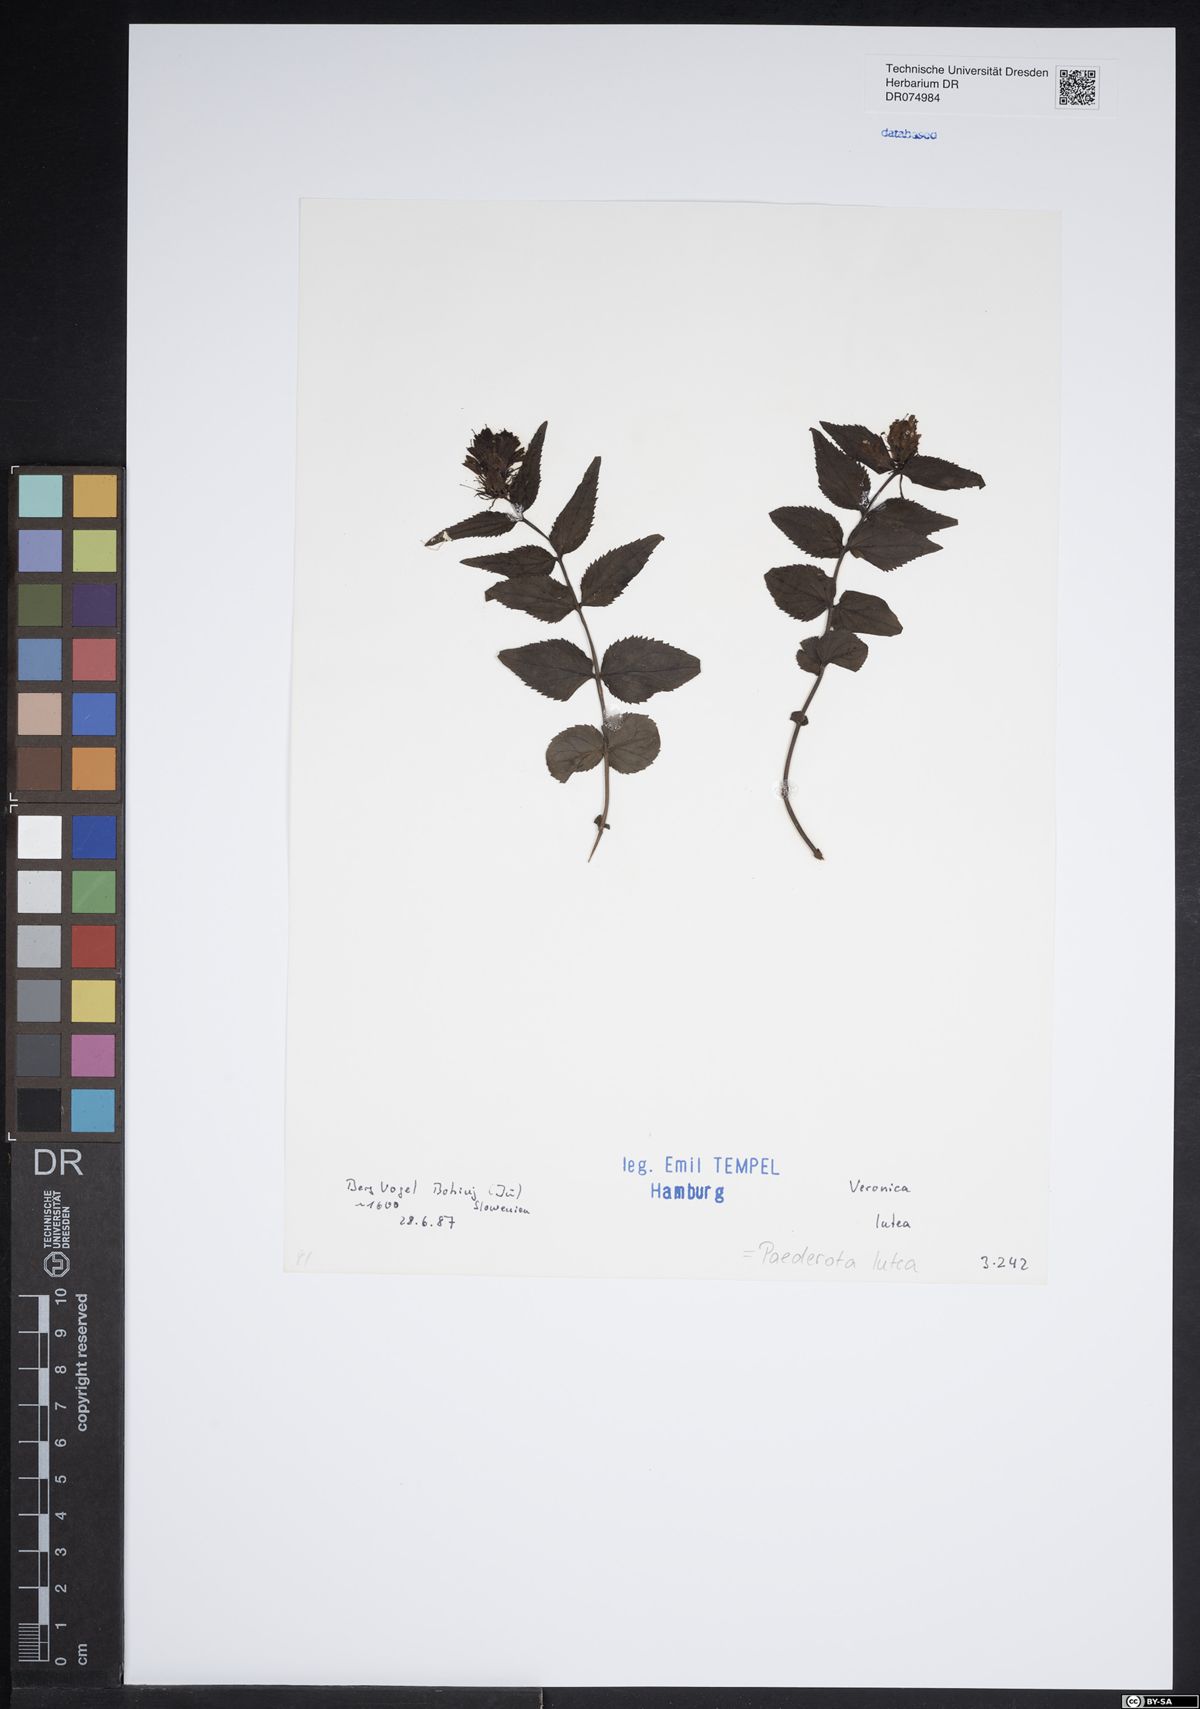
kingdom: Plantae
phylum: Tracheophyta
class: Magnoliopsida
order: Lamiales
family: Plantaginaceae
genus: Paederota
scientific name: Paederota lutea
